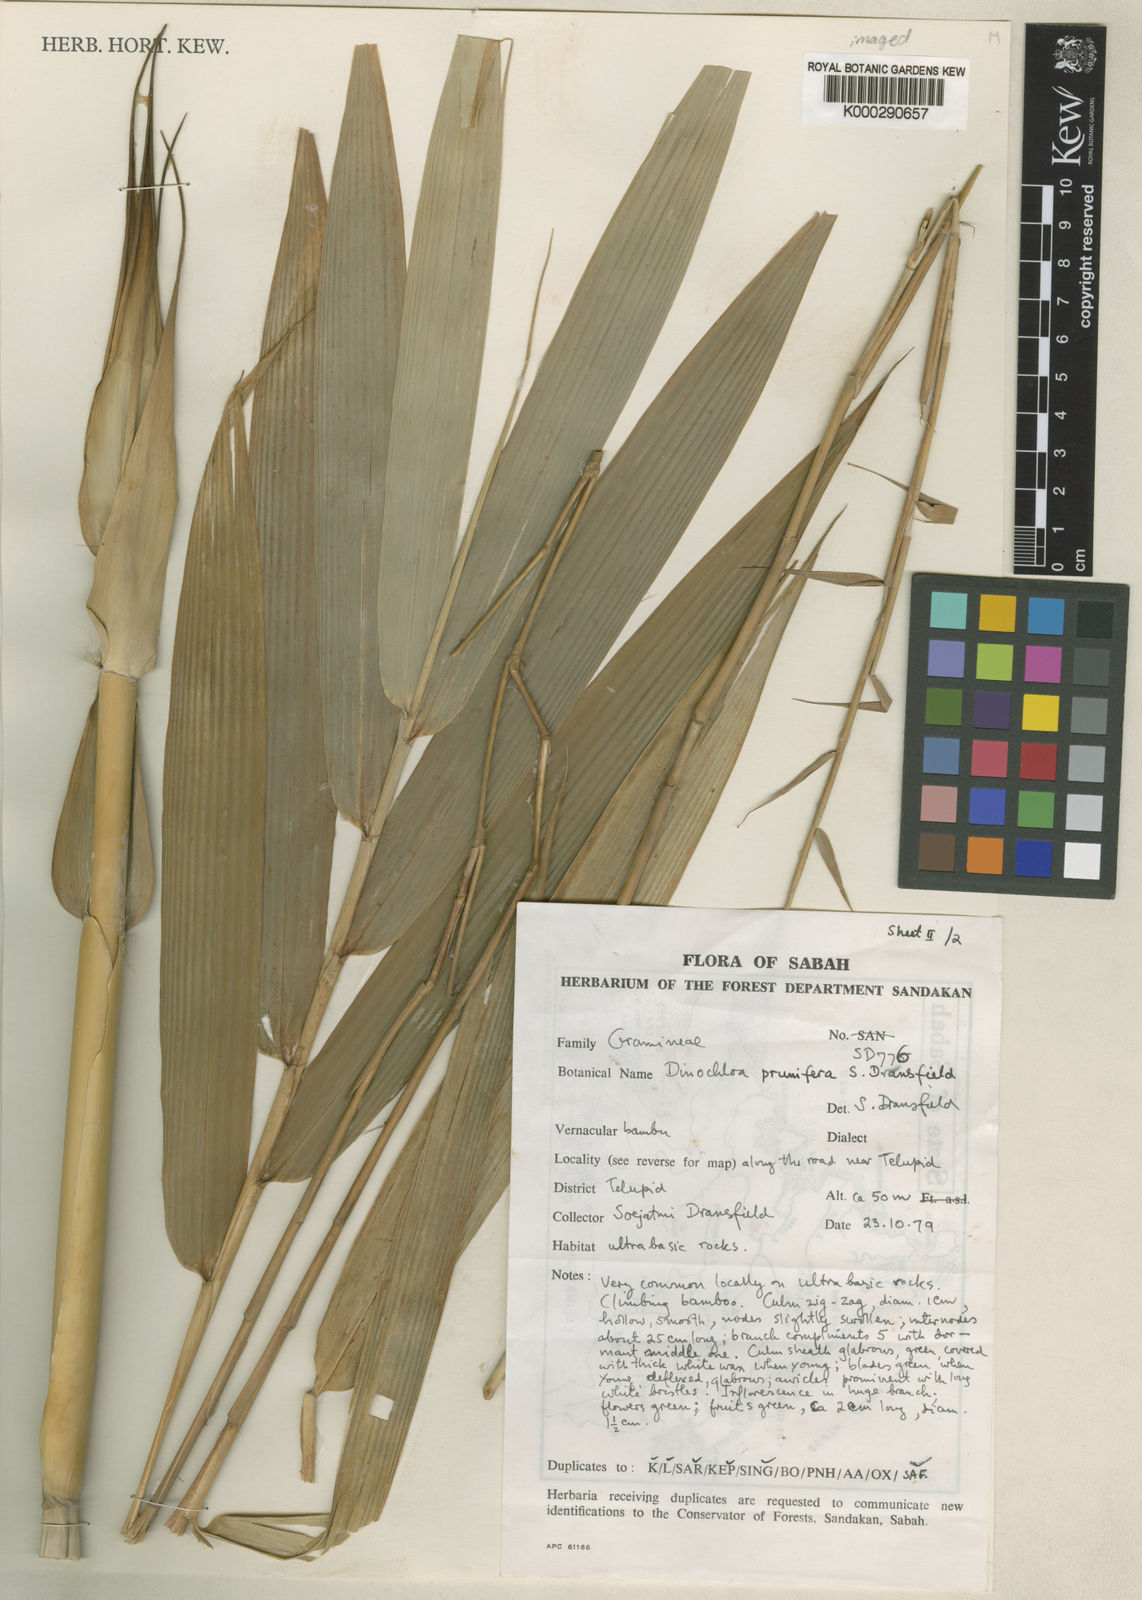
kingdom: Plantae
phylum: Tracheophyta
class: Liliopsida
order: Poales
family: Poaceae
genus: Dinochloa
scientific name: Dinochloa prunifera
